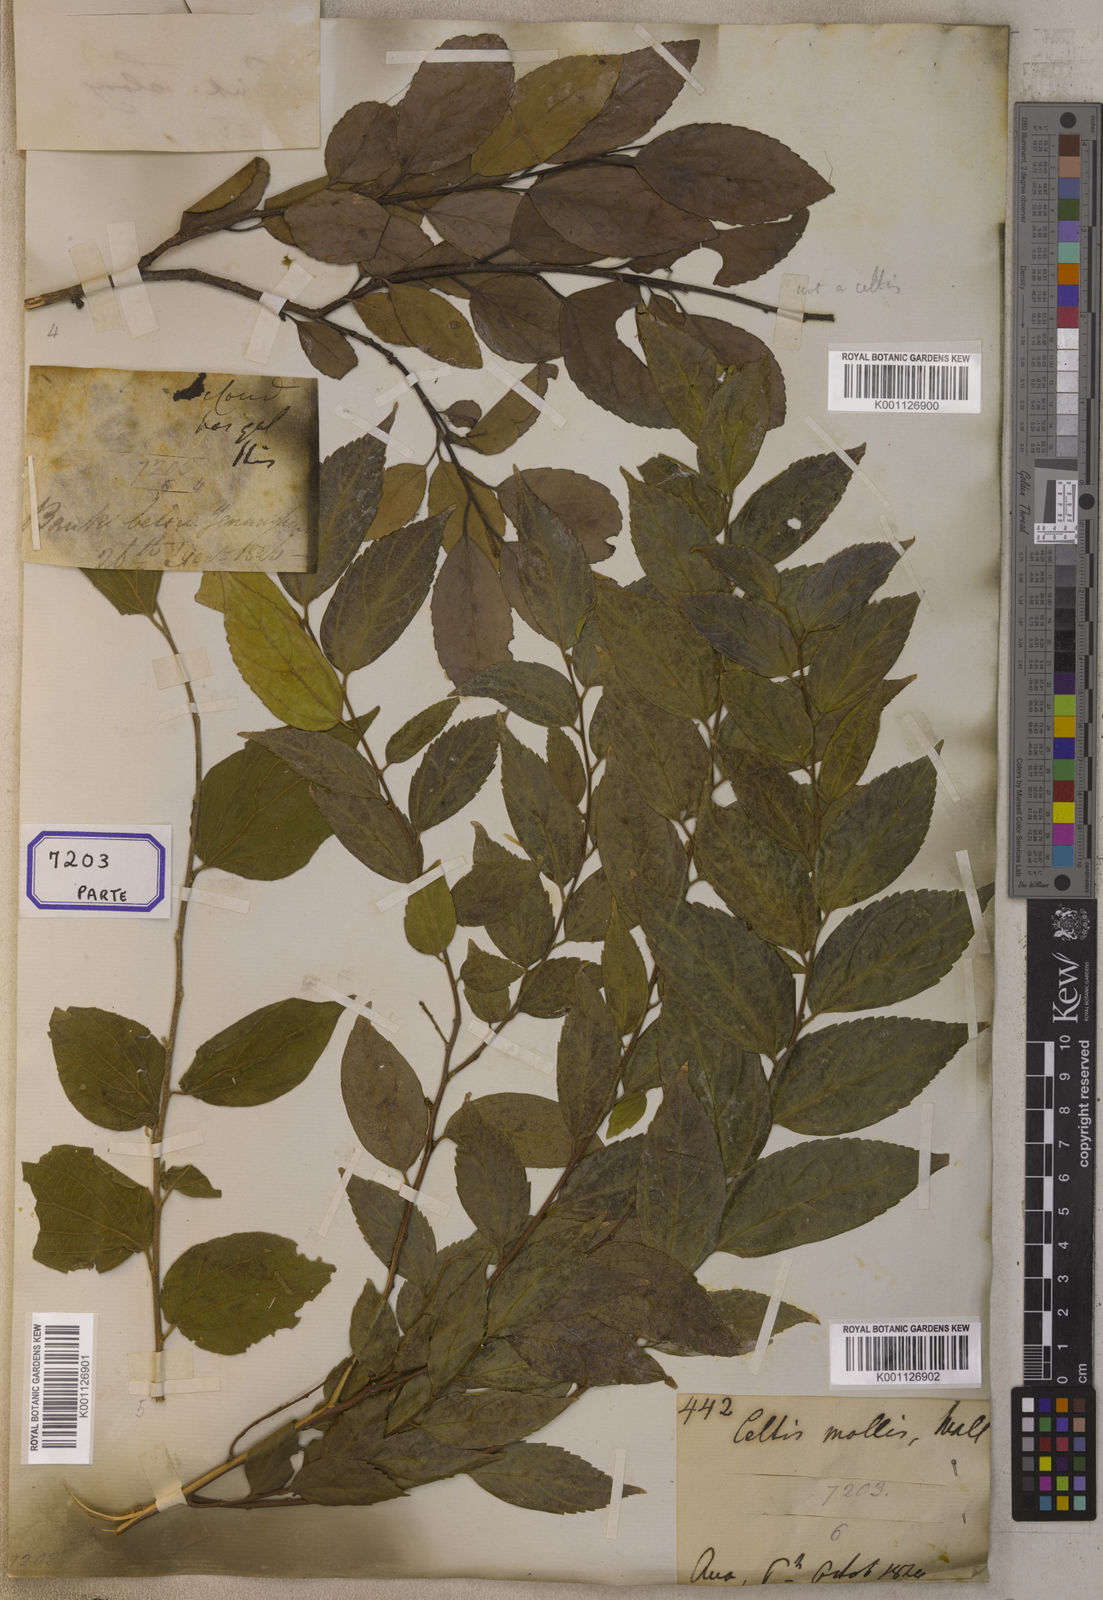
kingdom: Plantae
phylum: Tracheophyta
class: Magnoliopsida
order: Cardiopteridales
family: Stemonuraceae
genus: Gomphandra
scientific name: Gomphandra
